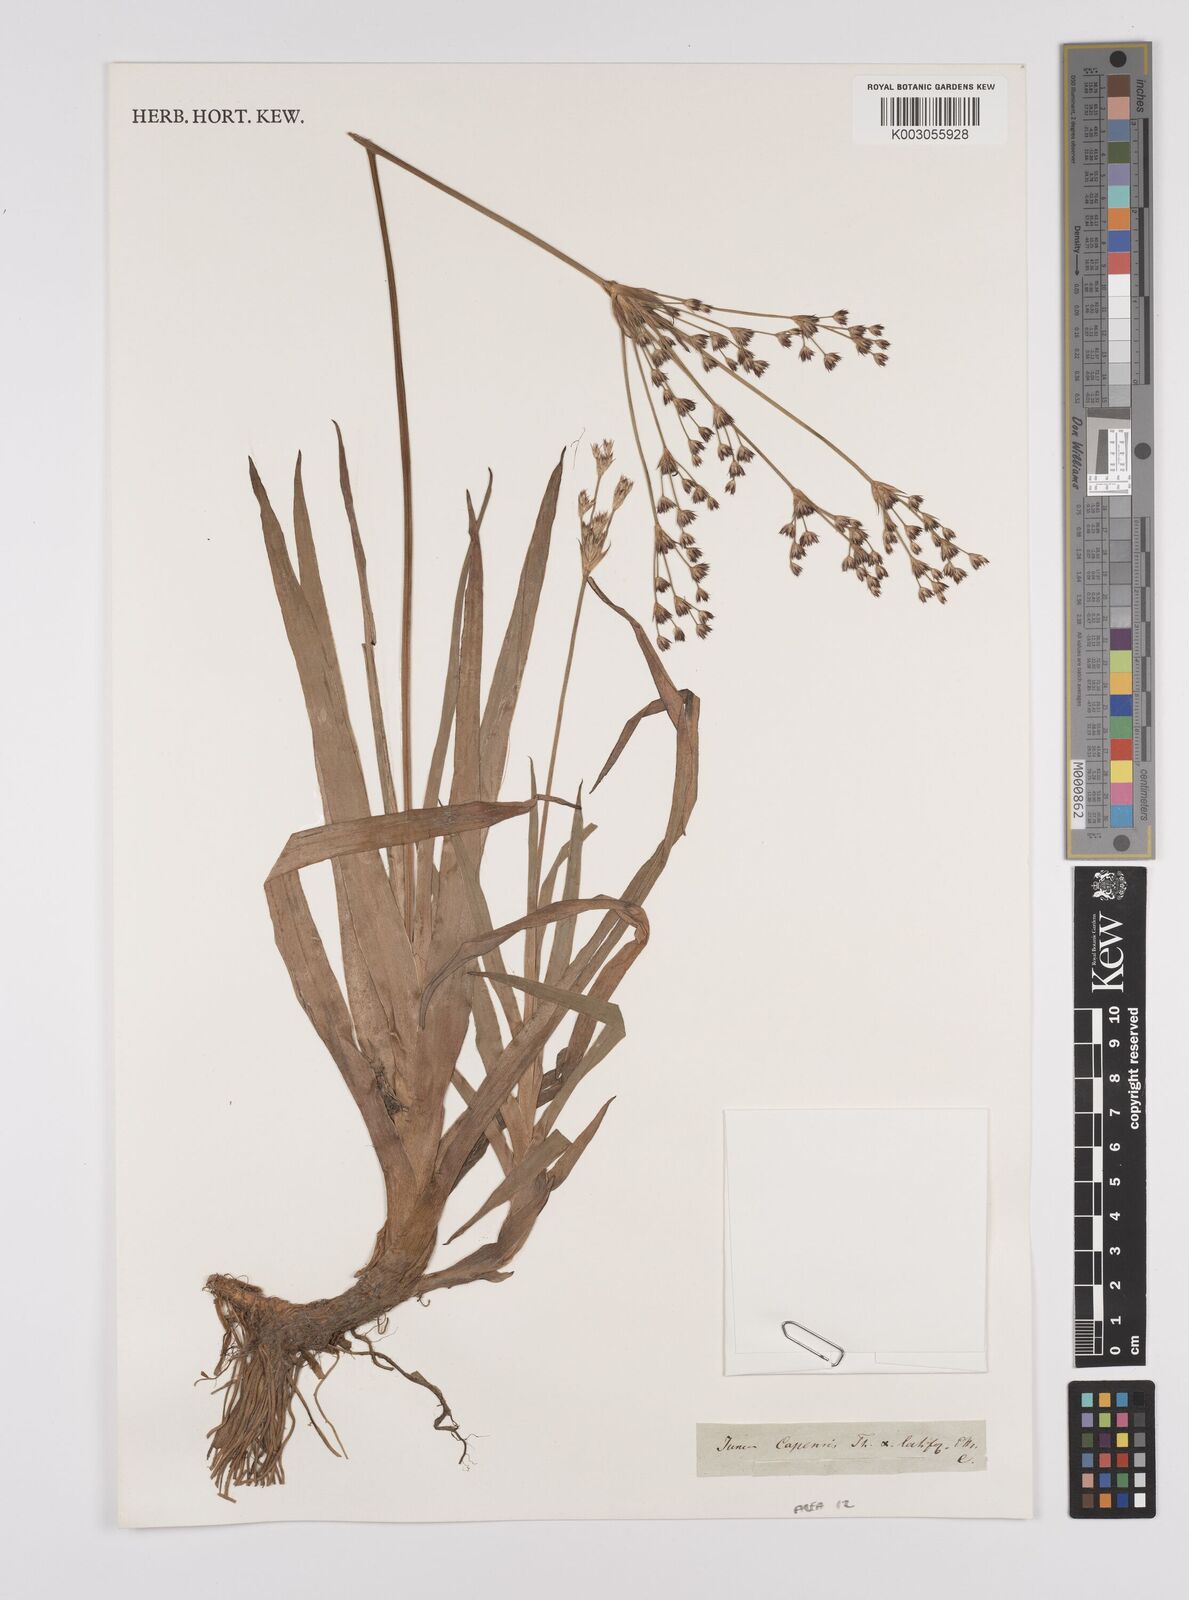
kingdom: Plantae
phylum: Tracheophyta
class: Liliopsida
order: Poales
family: Juncaceae
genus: Juncus
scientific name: Juncus capensis
